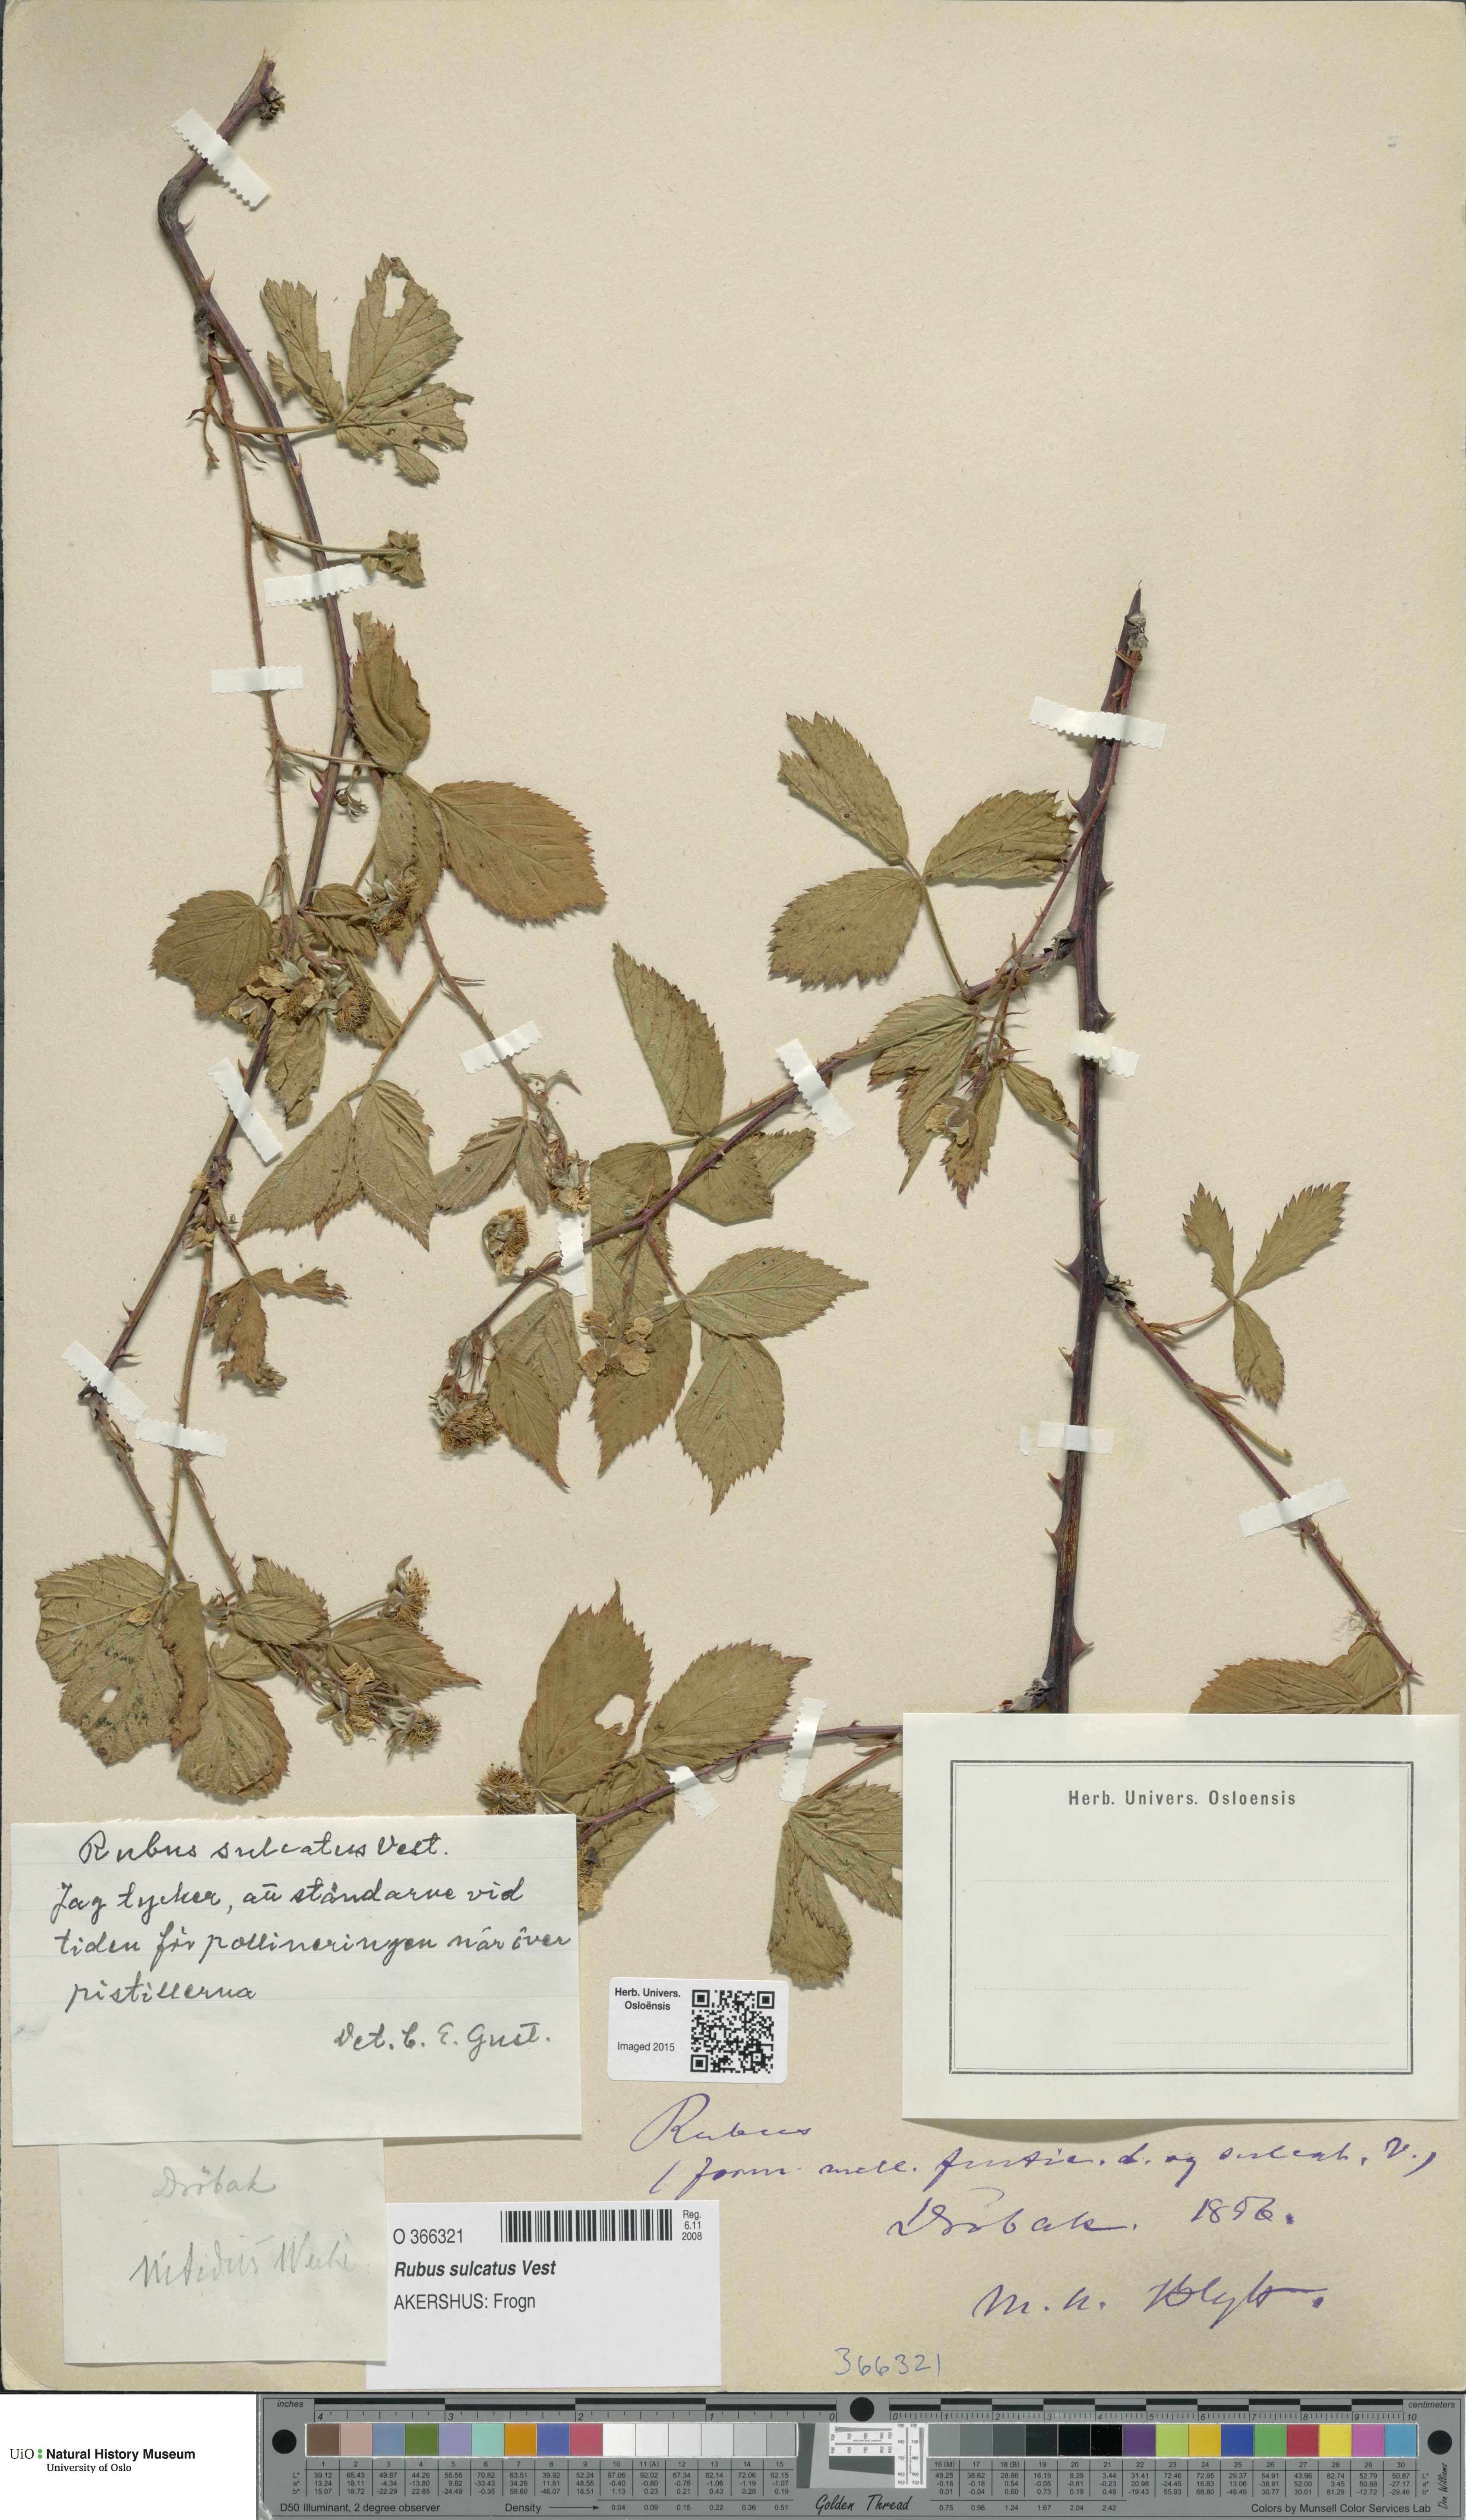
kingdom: Plantae
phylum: Tracheophyta
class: Magnoliopsida
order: Rosales
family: Rosaceae
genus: Rubus
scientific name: Rubus sulcatus
